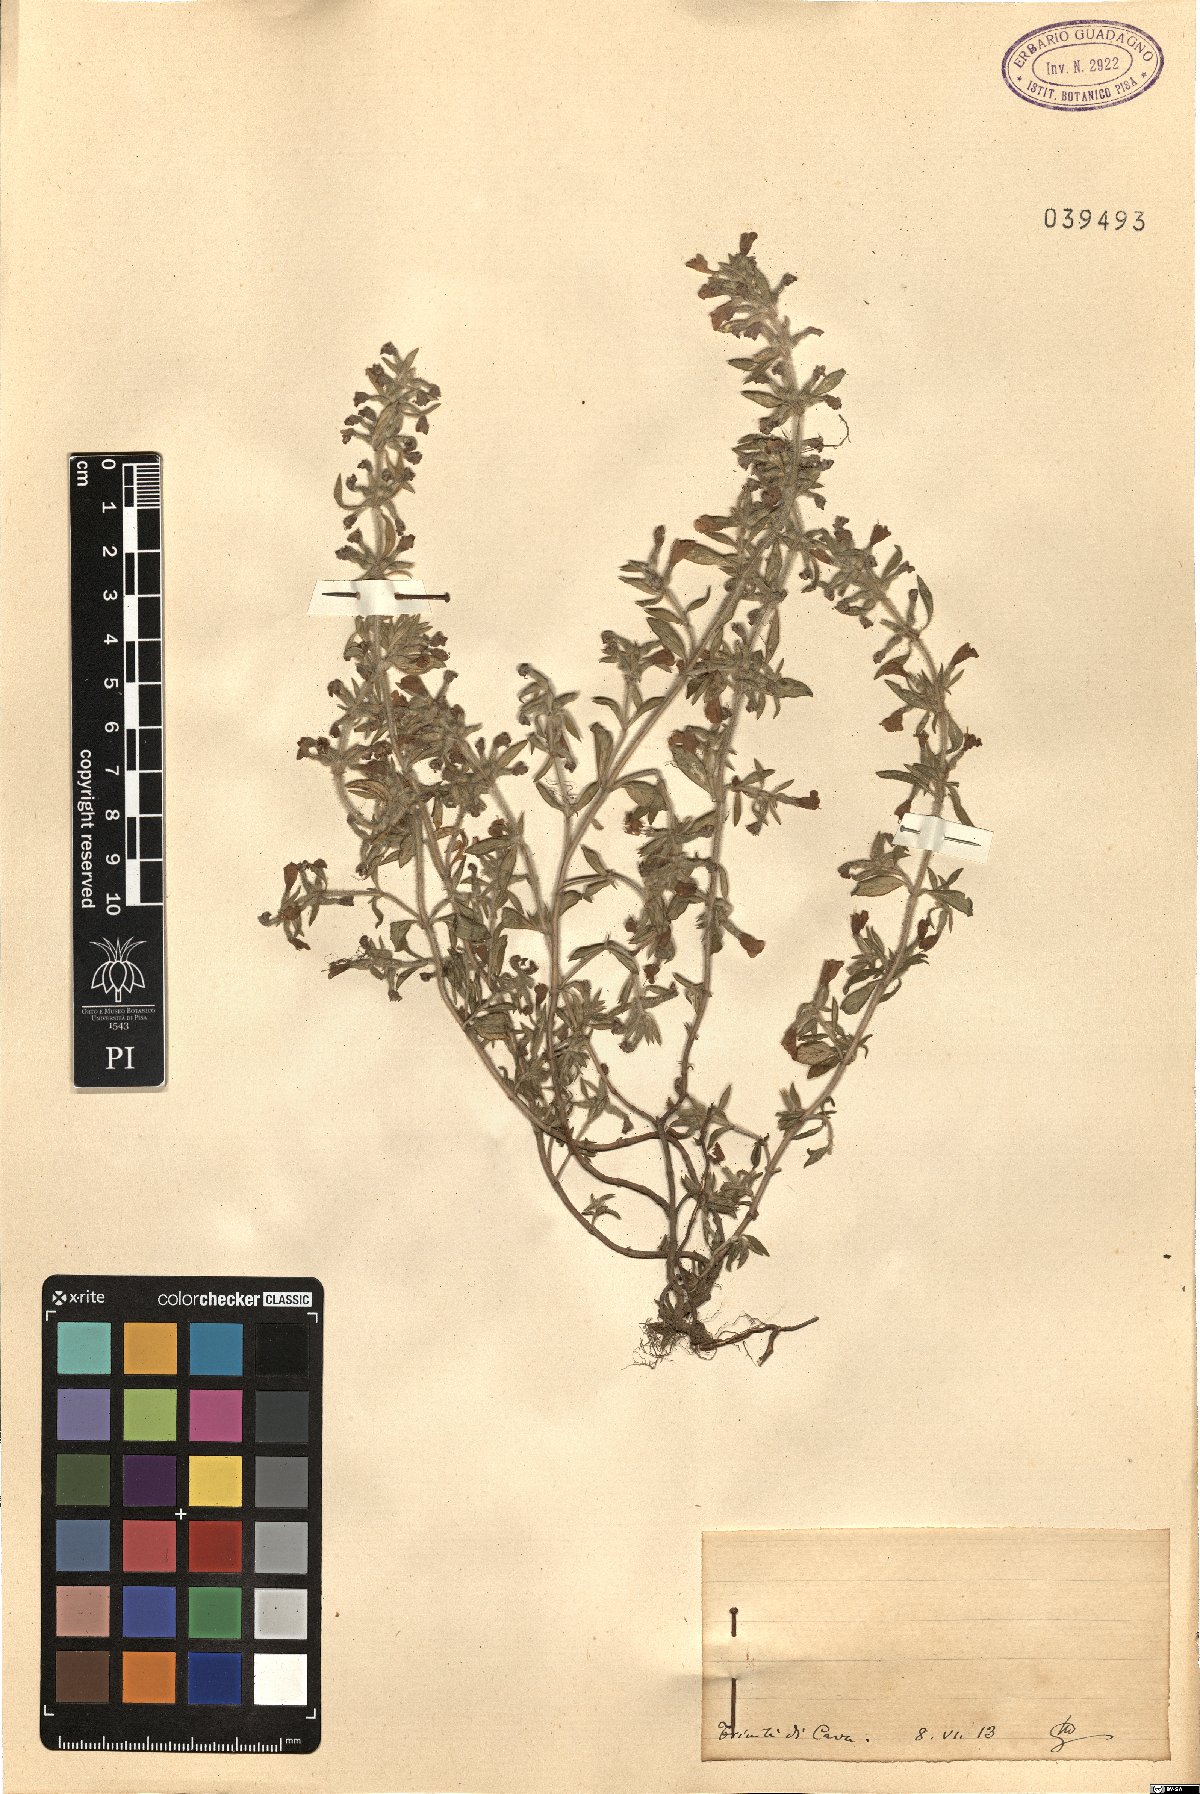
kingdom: Plantae
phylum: Tracheophyta
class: Magnoliopsida
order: Lamiales
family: Lamiaceae
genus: Calamintha
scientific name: Calamintha
